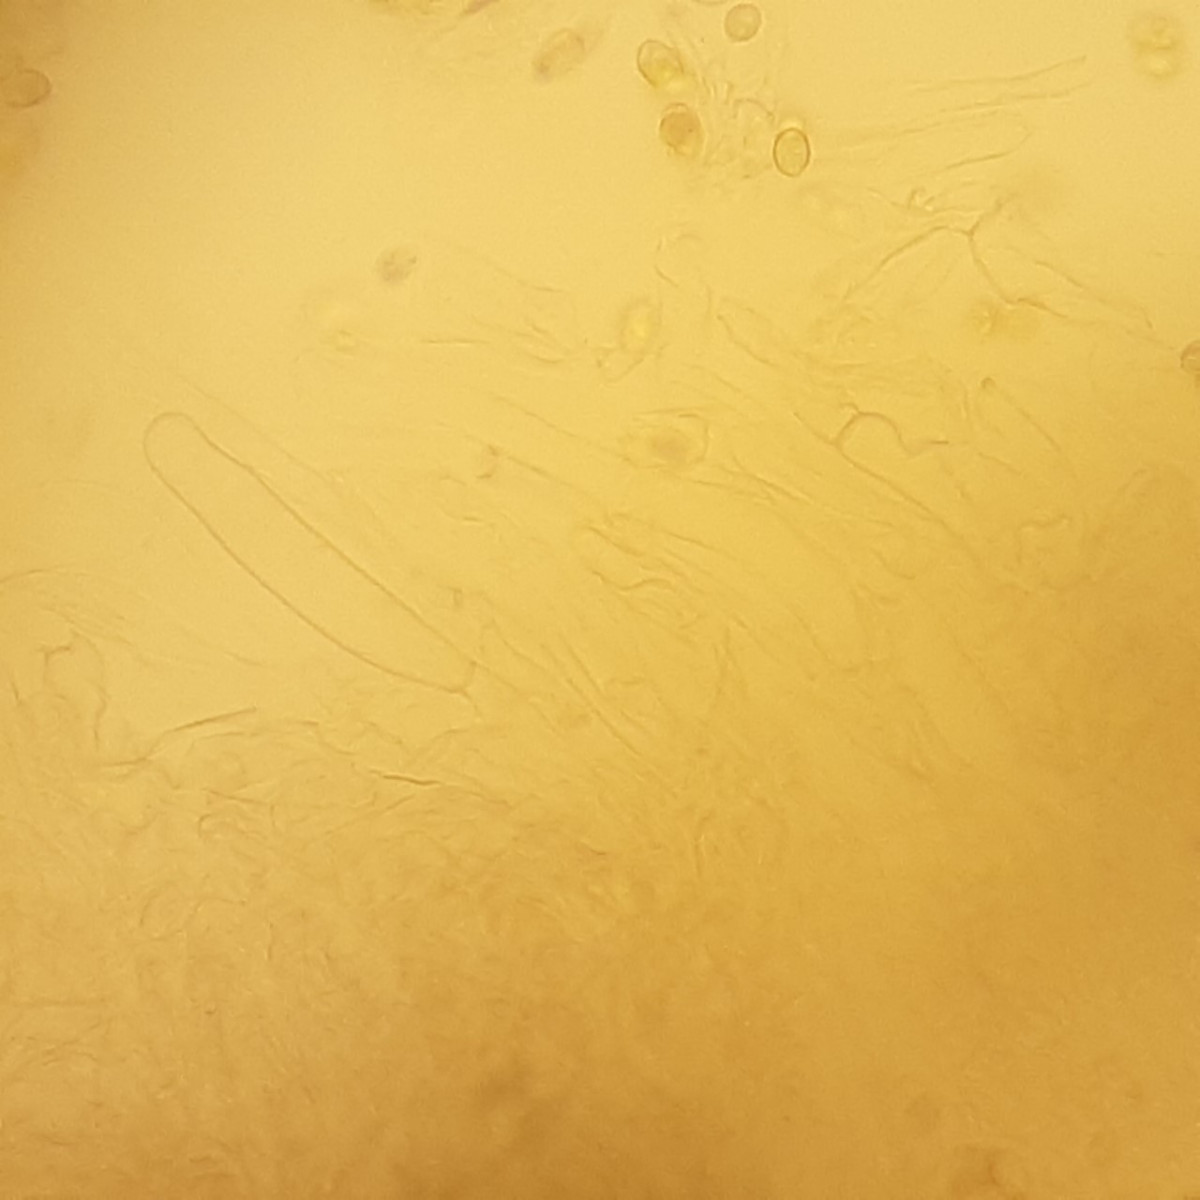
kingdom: Fungi
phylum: Basidiomycota
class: Agaricomycetes
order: Agaricales
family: Tubariaceae
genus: Tubaria
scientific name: Tubaria dispersa
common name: tjørne-fnughat
